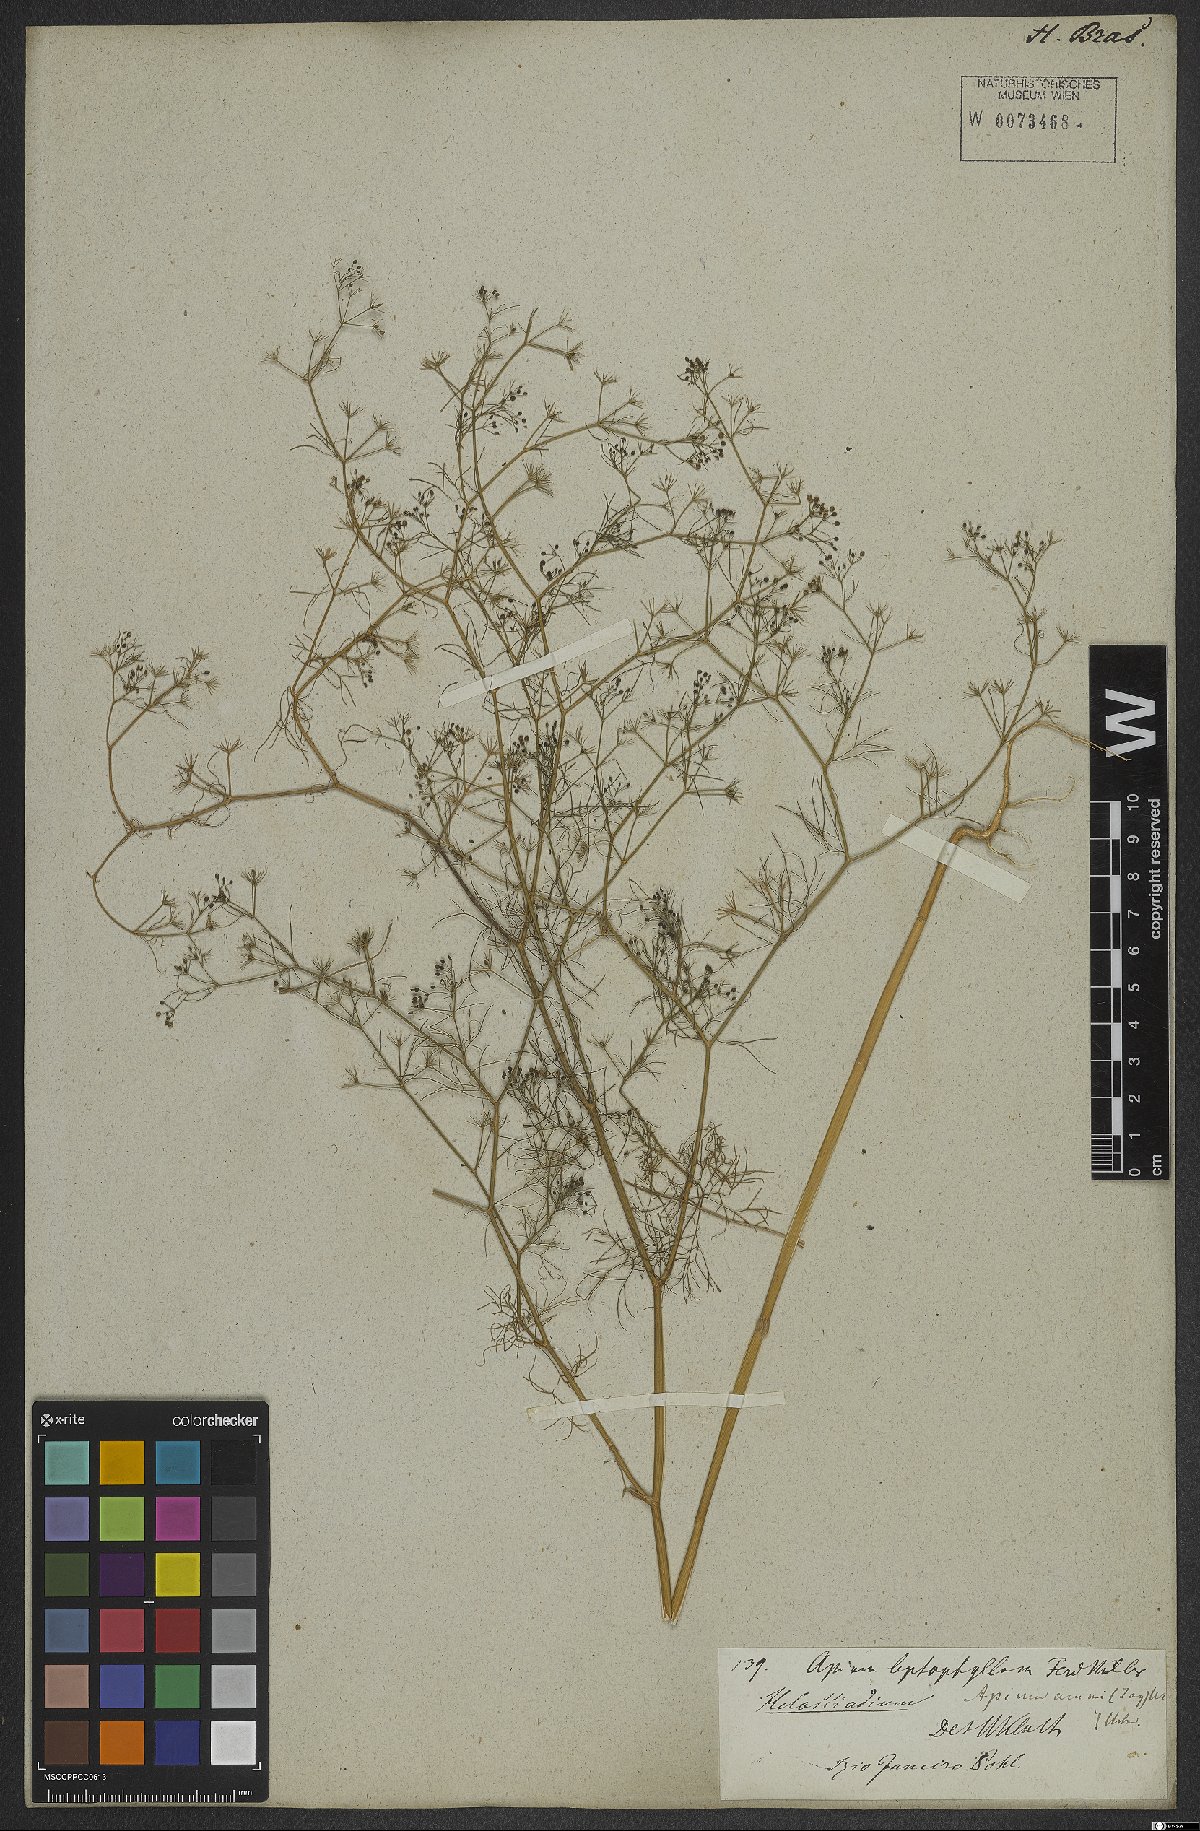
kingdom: Plantae
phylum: Tracheophyta
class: Magnoliopsida
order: Apiales
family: Apiaceae
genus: Cyclospermum
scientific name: Cyclospermum leptophyllum
